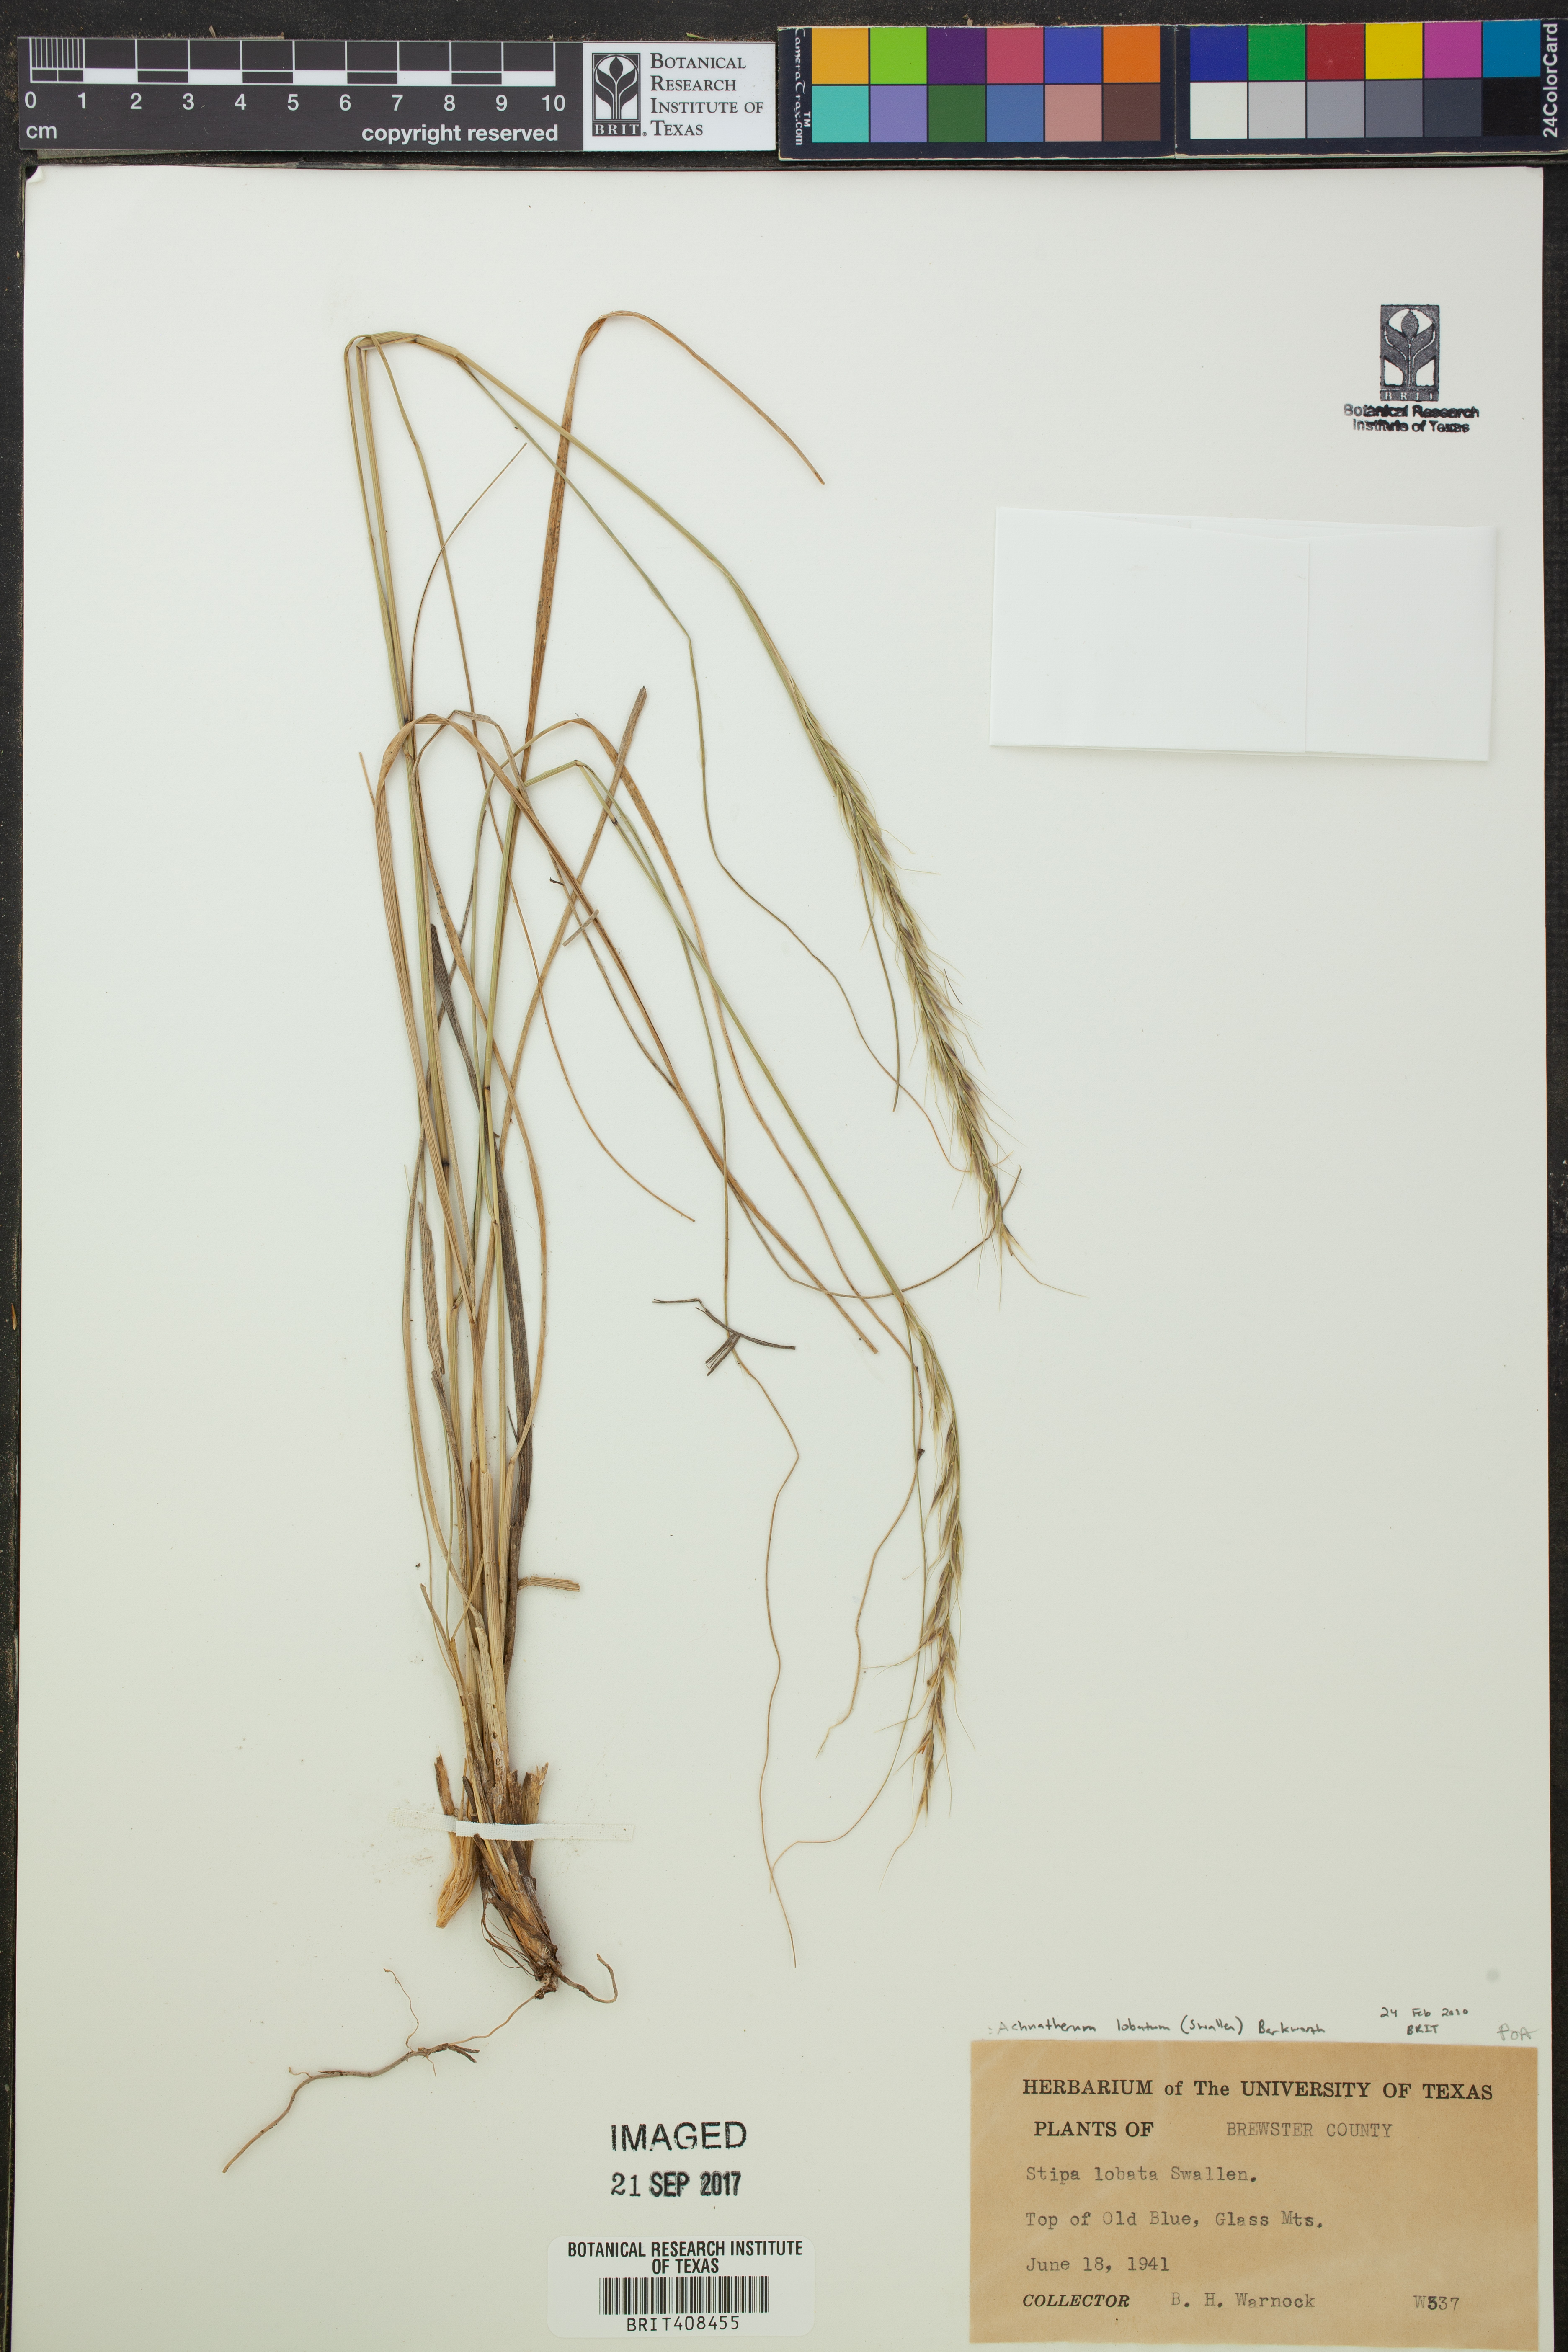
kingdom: Plantae
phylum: Tracheophyta
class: Liliopsida
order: Poales
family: Poaceae
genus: Eriocoma
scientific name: Eriocoma lobata
